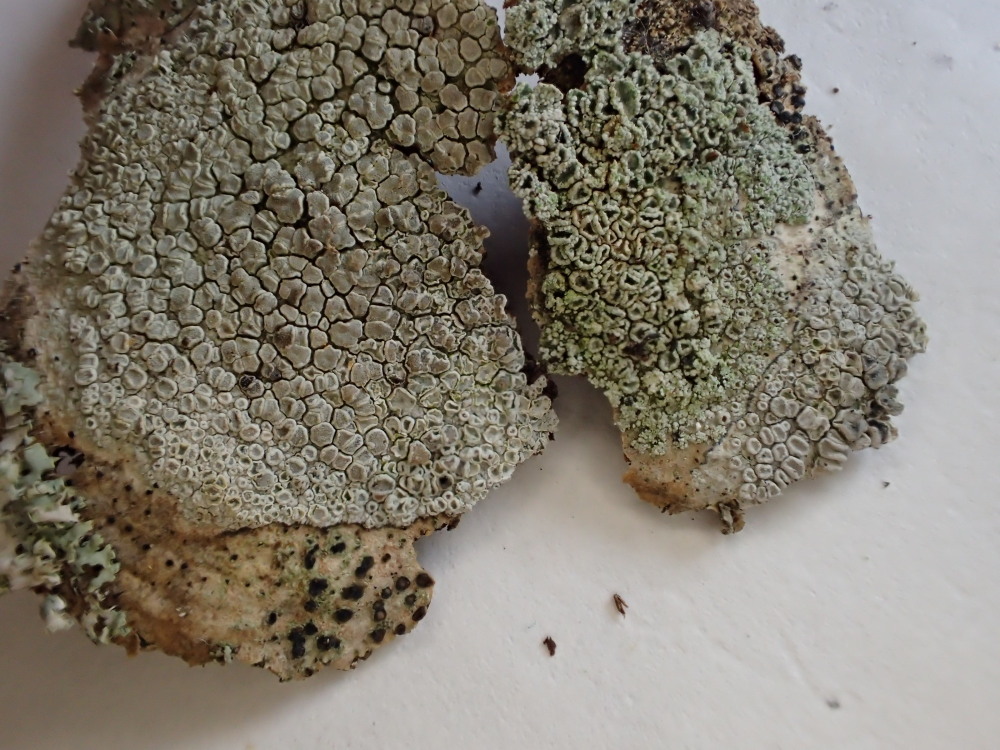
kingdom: Fungi
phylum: Ascomycota
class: Lecanoromycetes
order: Lecanorales
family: Lecanoraceae
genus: Lecanora
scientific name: Lecanora chlarotera
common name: brun kantskivelav
